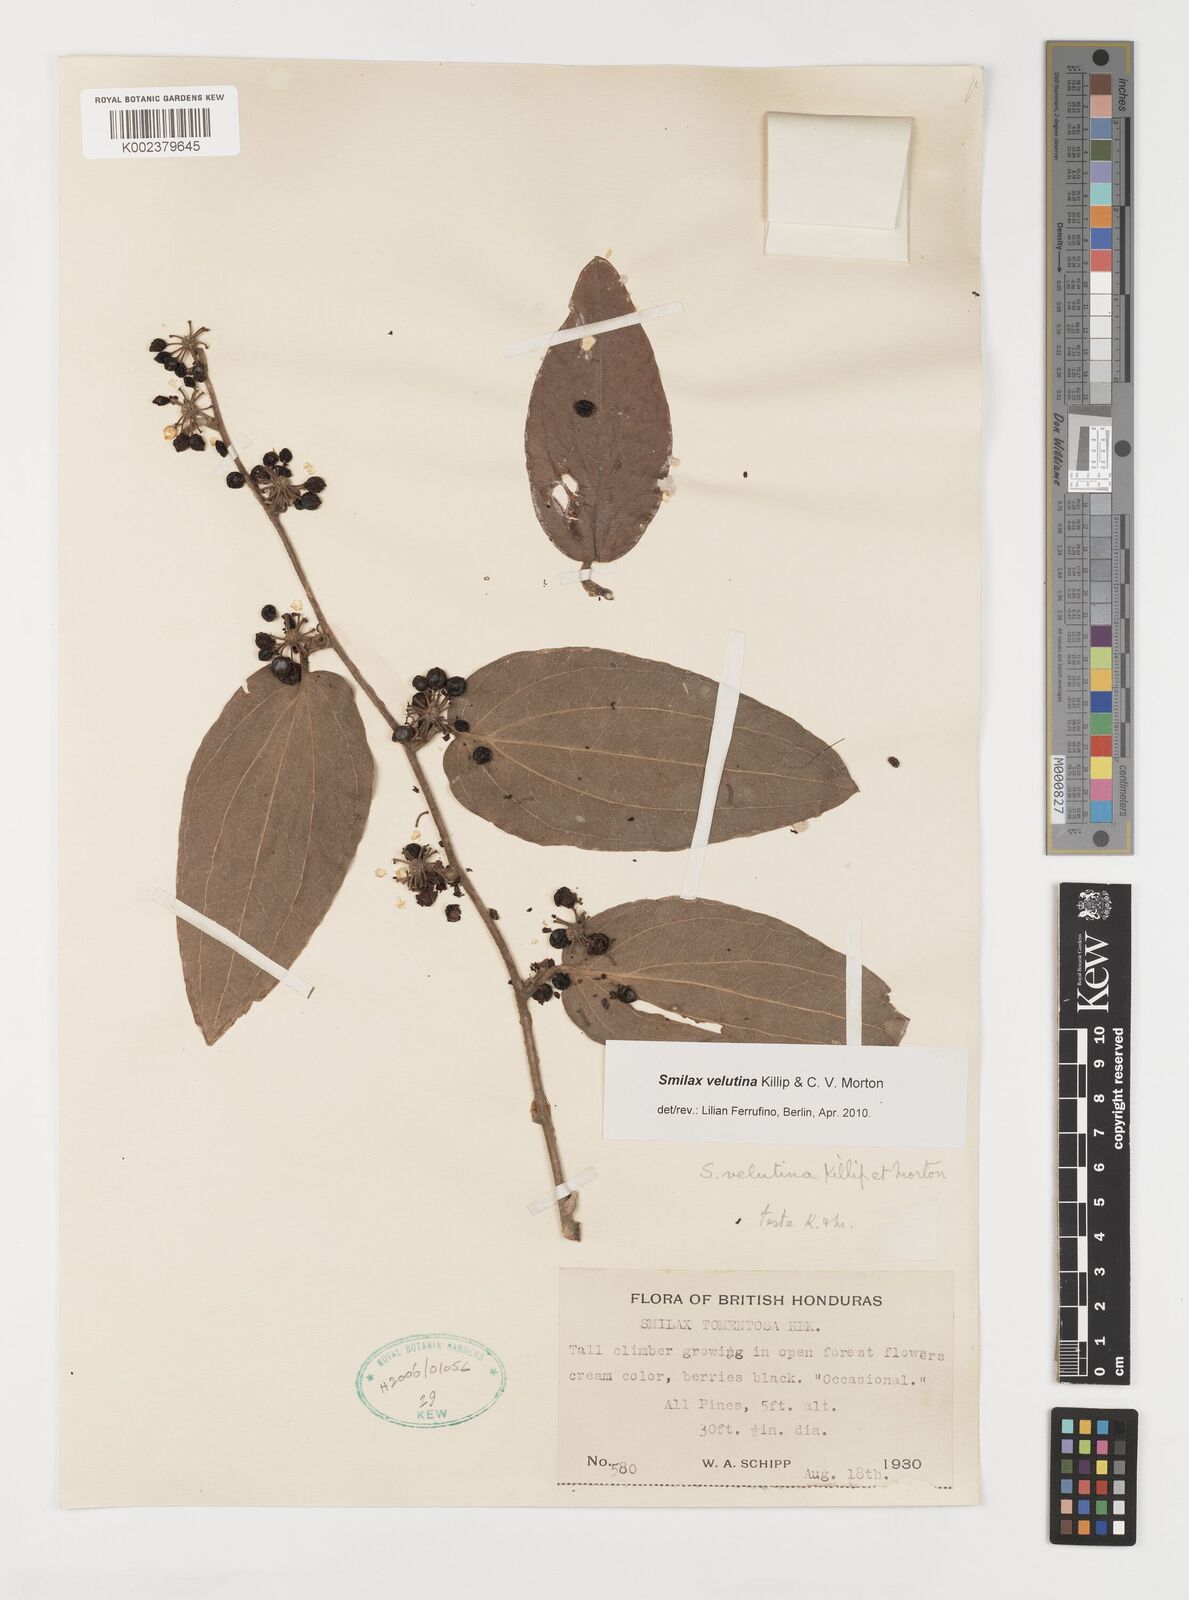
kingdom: Plantae
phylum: Tracheophyta
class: Liliopsida
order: Liliales
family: Smilacaceae
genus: Smilax
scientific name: Smilax velutina
